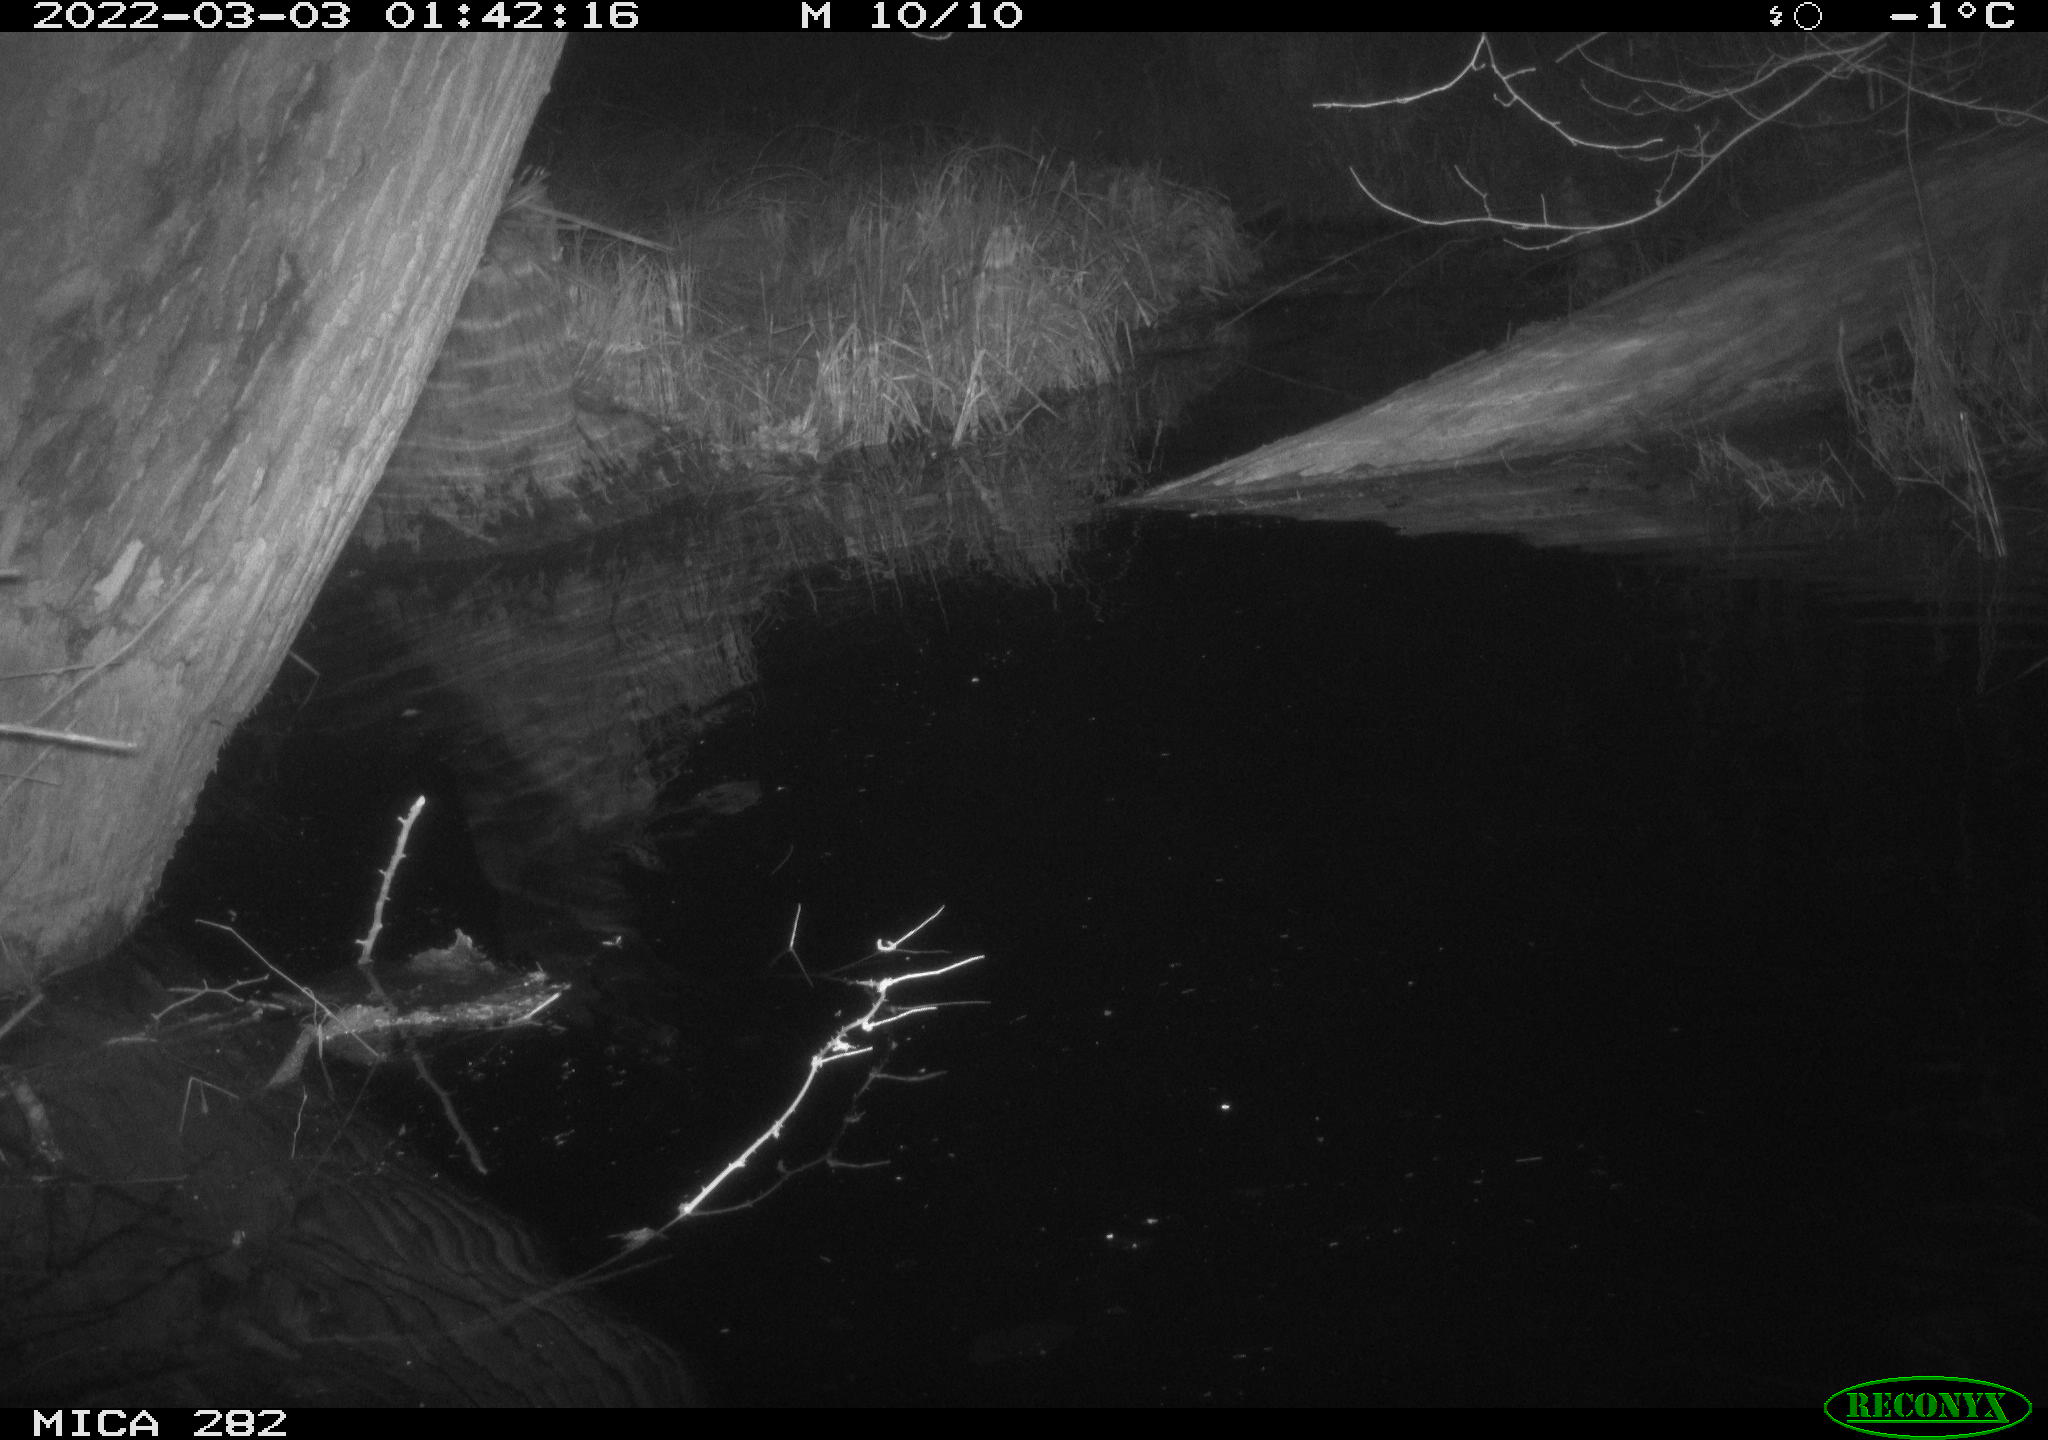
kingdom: Animalia
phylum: Chordata
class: Aves
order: Anseriformes
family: Anatidae
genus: Anas
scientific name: Anas platyrhynchos
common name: Mallard
